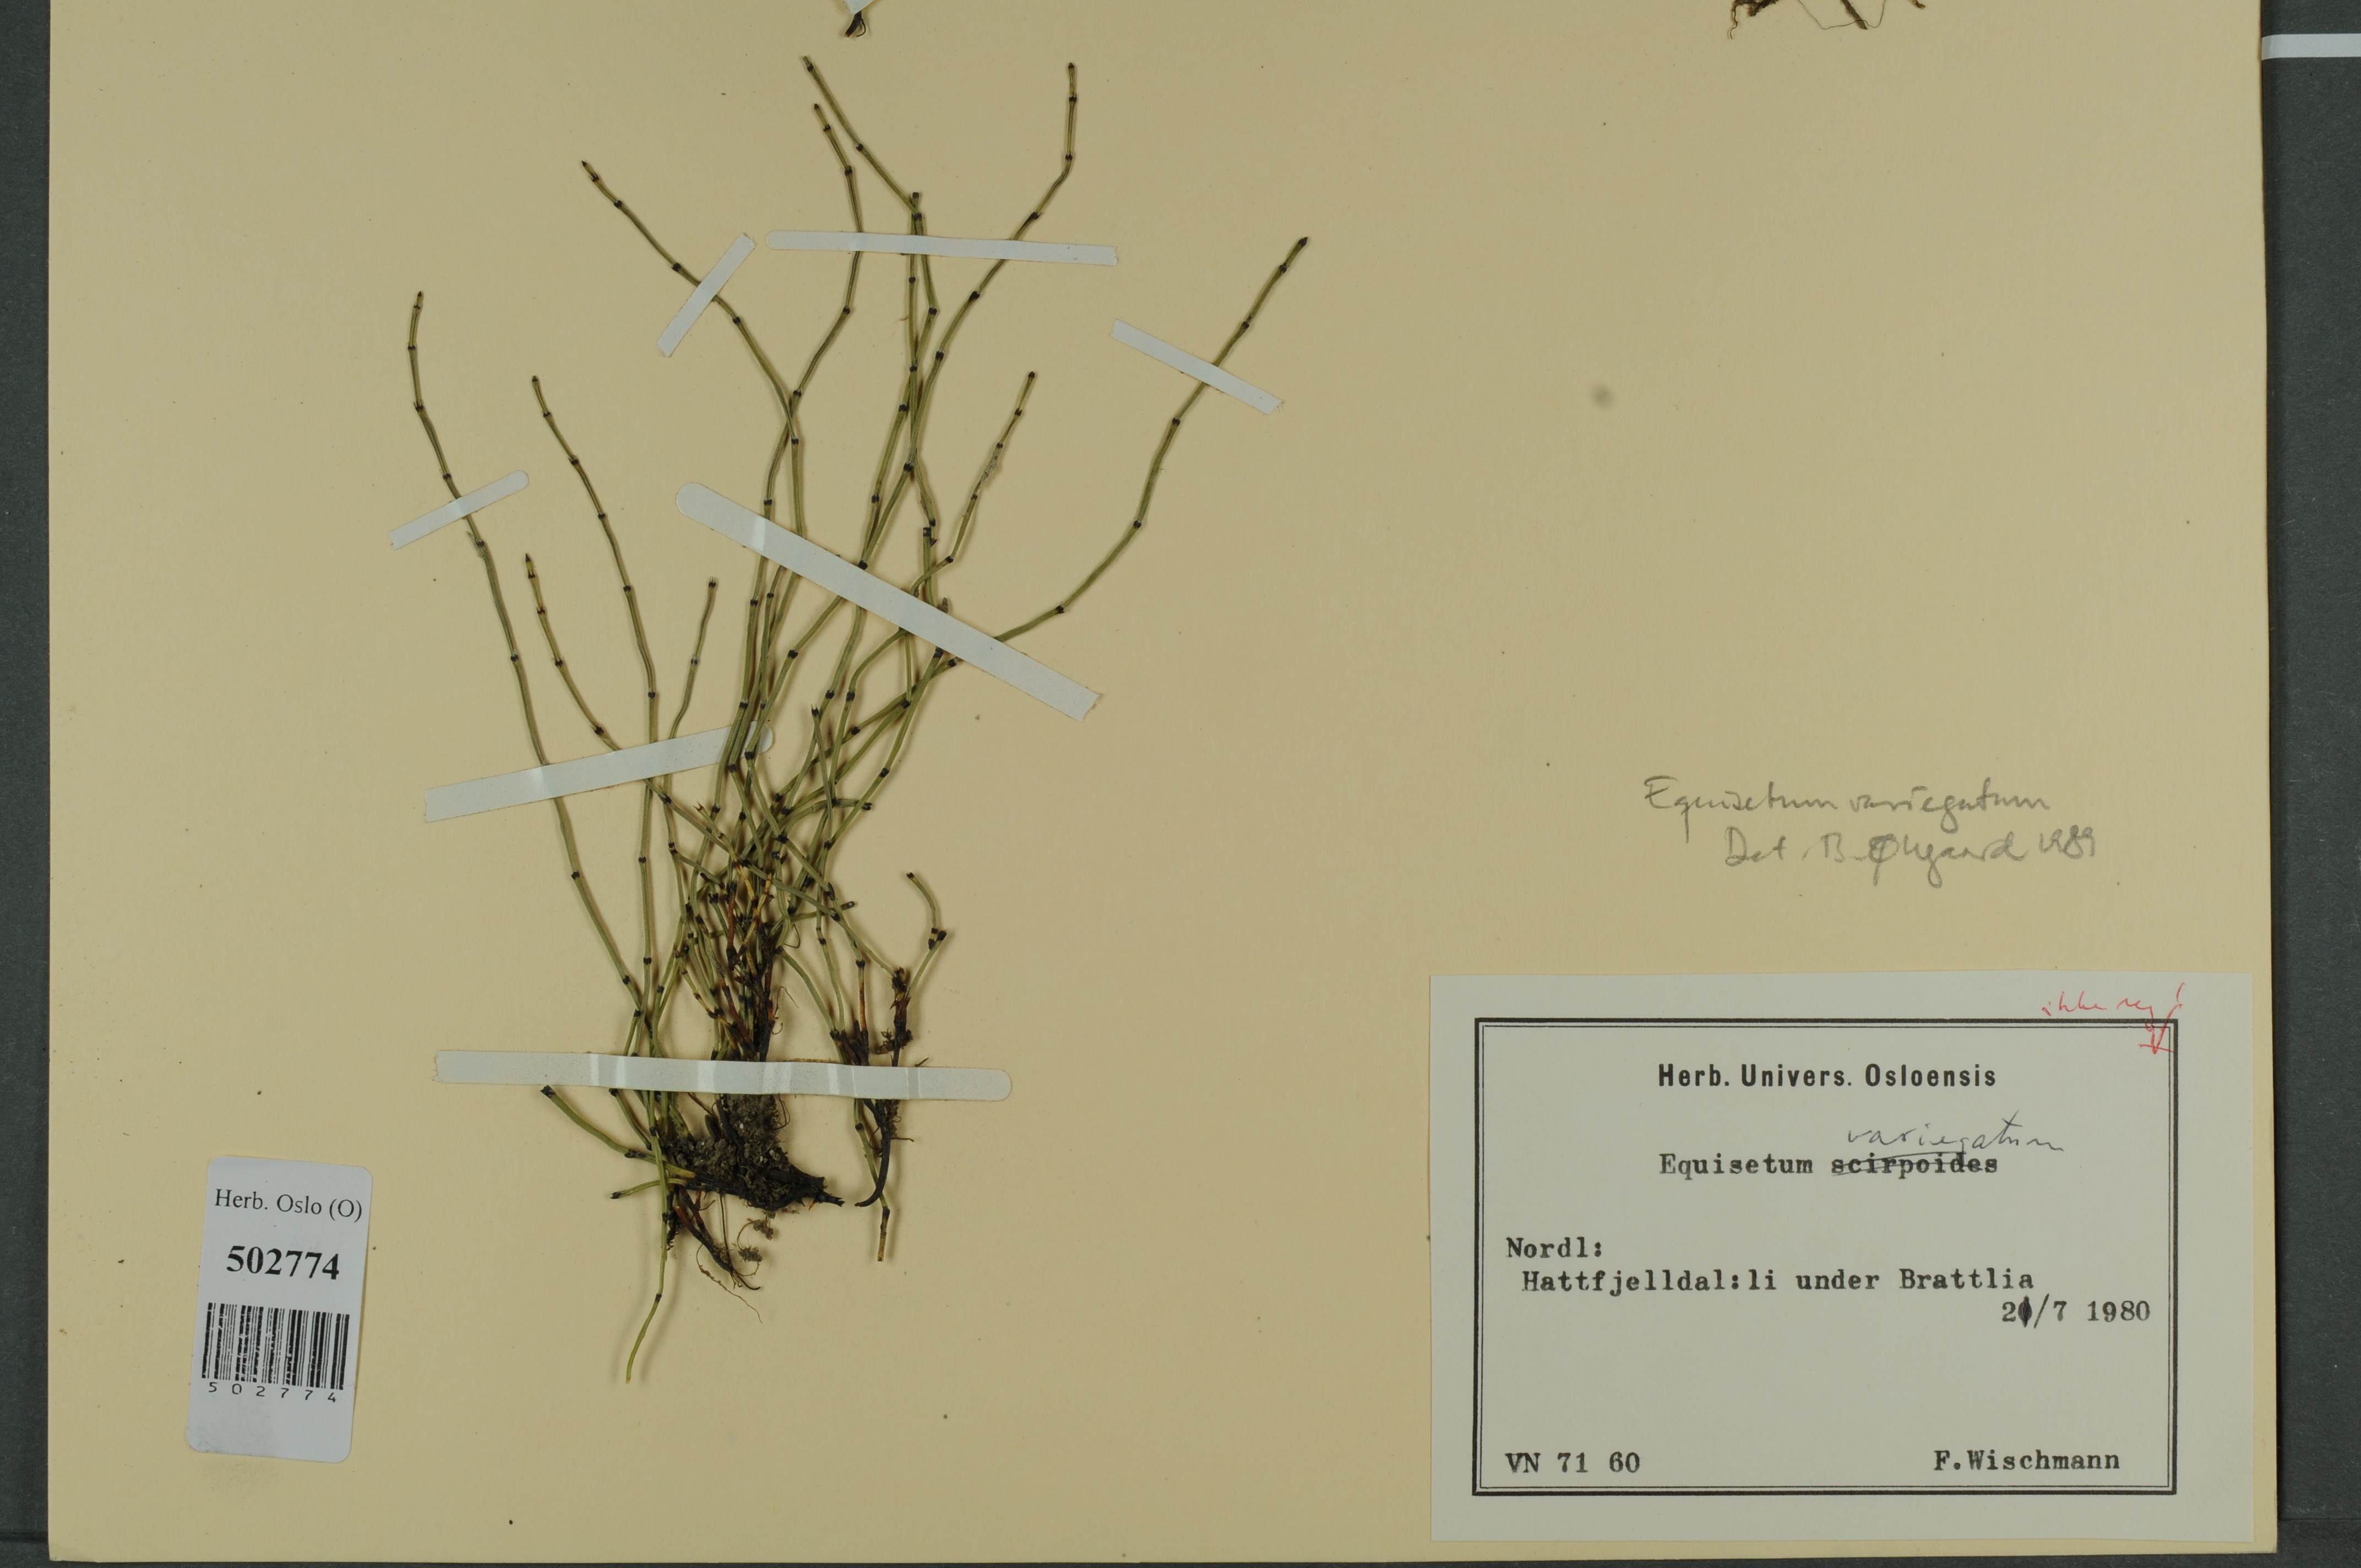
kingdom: Plantae
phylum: Tracheophyta
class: Polypodiopsida
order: Equisetales
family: Equisetaceae
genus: Equisetum
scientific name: Equisetum variegatum
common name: Variegated horsetail
